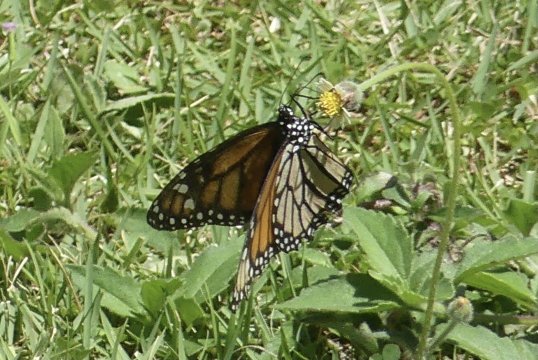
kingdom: Animalia
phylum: Arthropoda
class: Insecta
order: Lepidoptera
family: Nymphalidae
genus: Danaus
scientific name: Danaus plexippus
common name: Monarch
